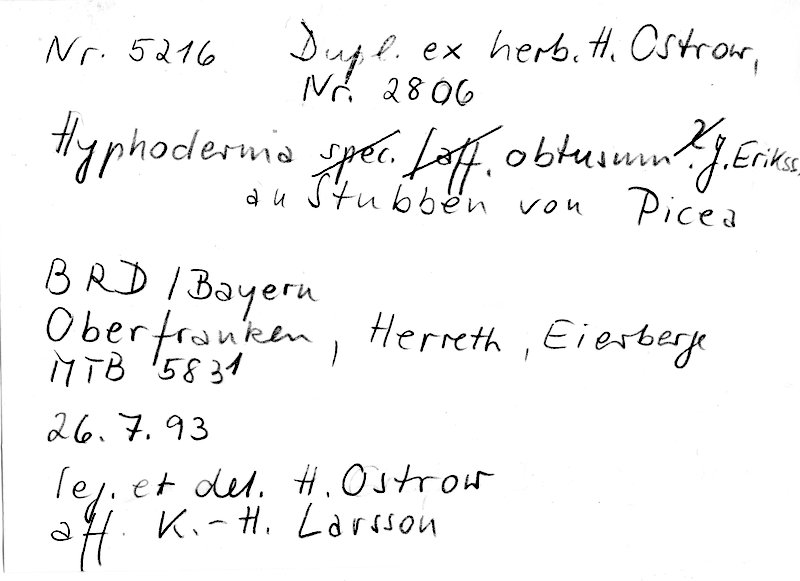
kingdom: Fungi
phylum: Basidiomycota
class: Agaricomycetes
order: Polyporales
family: Hyphodermataceae
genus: Hyphoderma
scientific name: Hyphoderma obtusum
